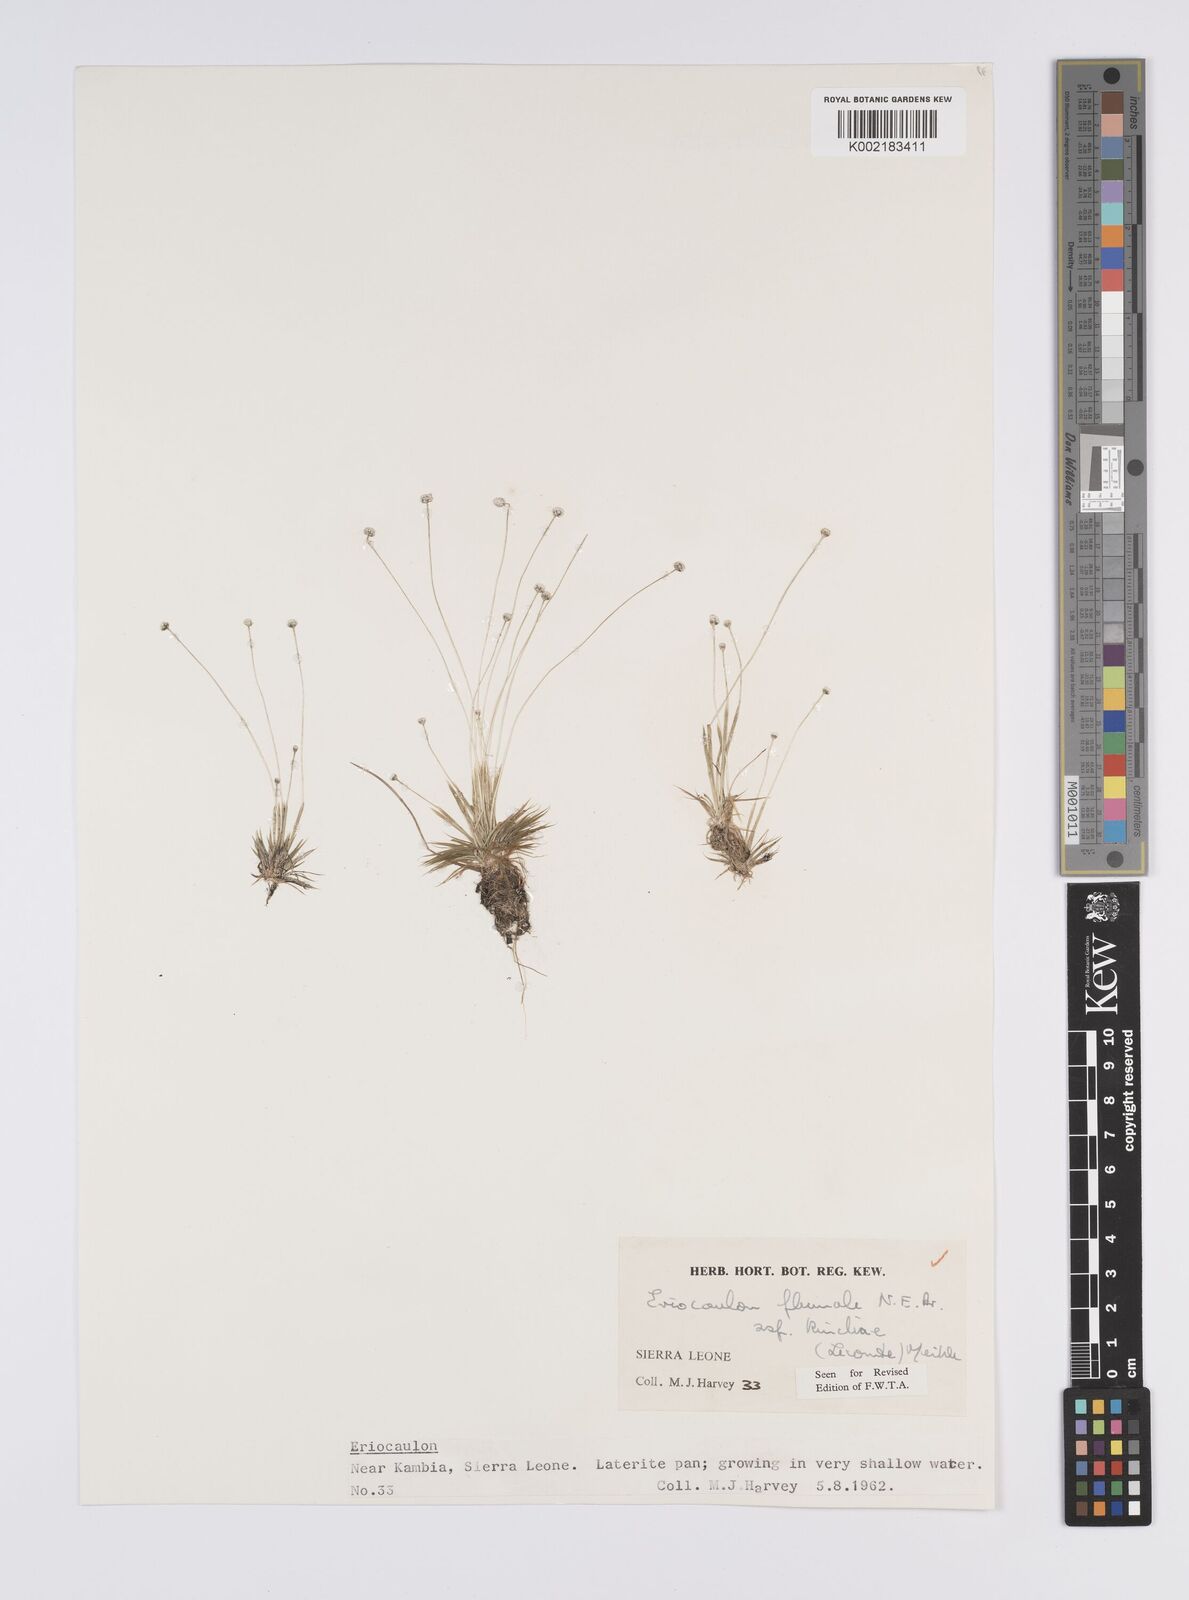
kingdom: Plantae
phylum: Tracheophyta
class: Liliopsida
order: Poales
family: Eriocaulaceae
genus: Eriocaulon
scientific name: Eriocaulon plumale
